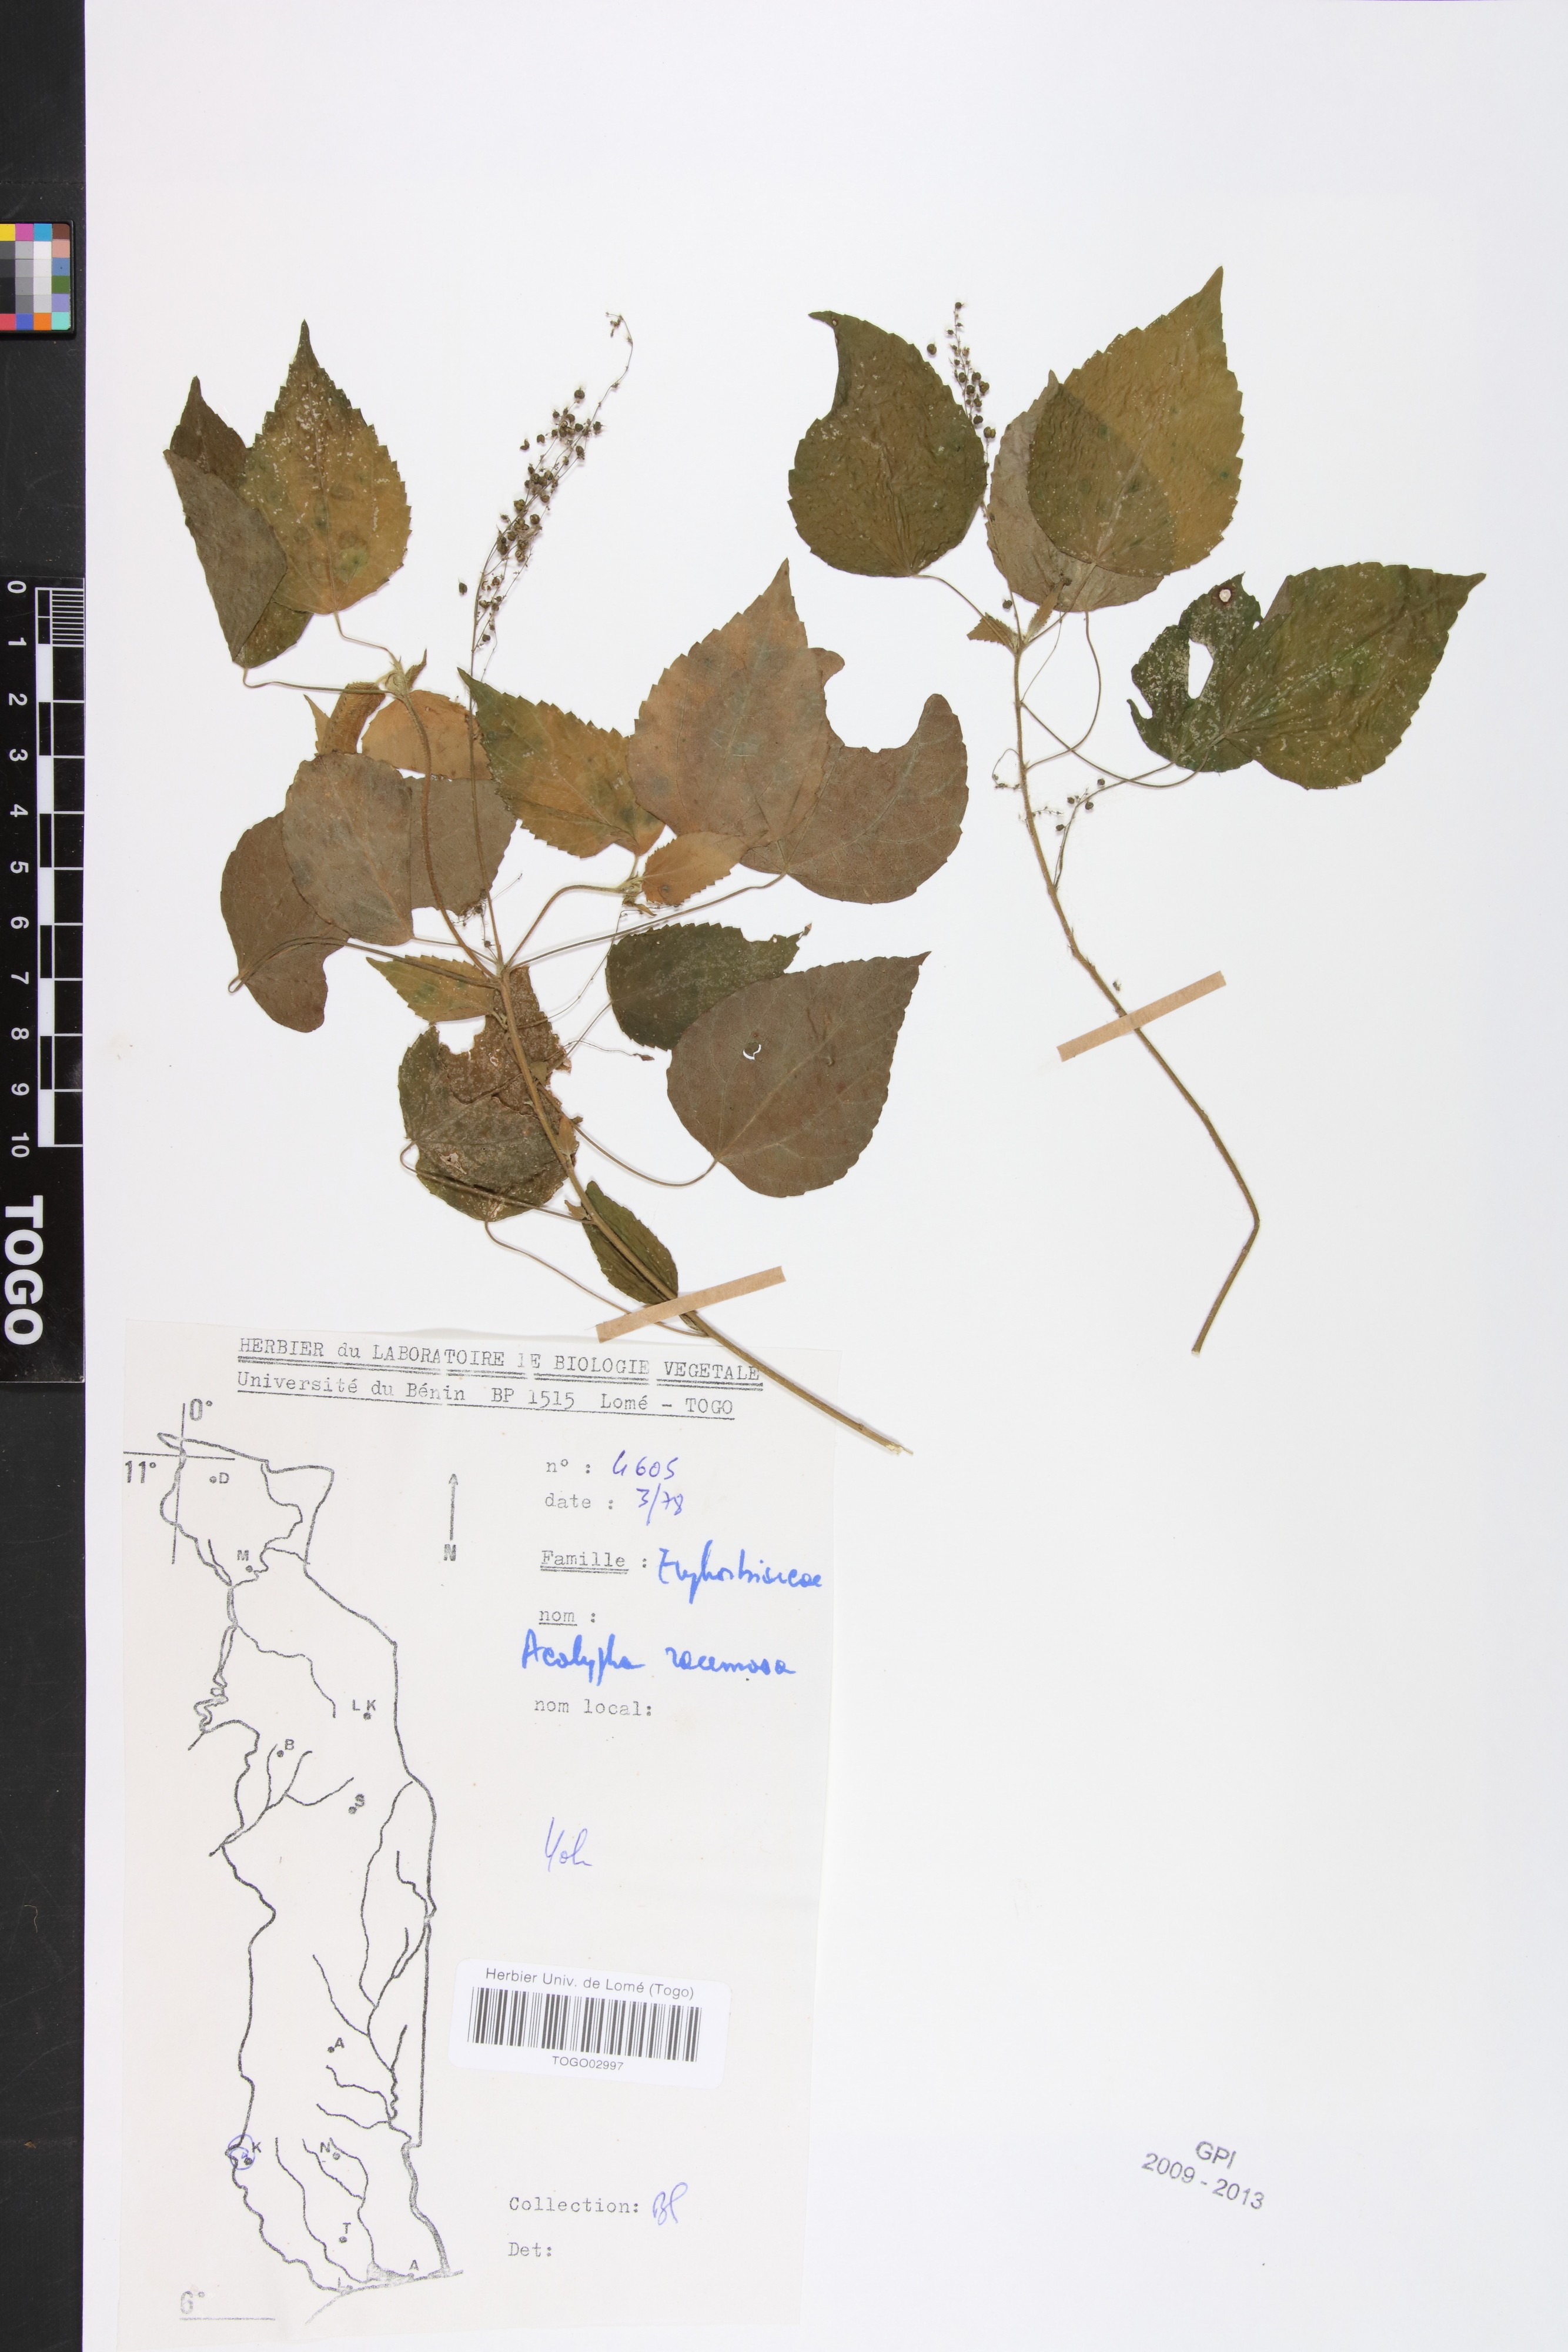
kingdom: Plantae
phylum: Tracheophyta
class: Magnoliopsida
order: Malpighiales
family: Euphorbiaceae
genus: Acalypha
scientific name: Acalypha paniculata
